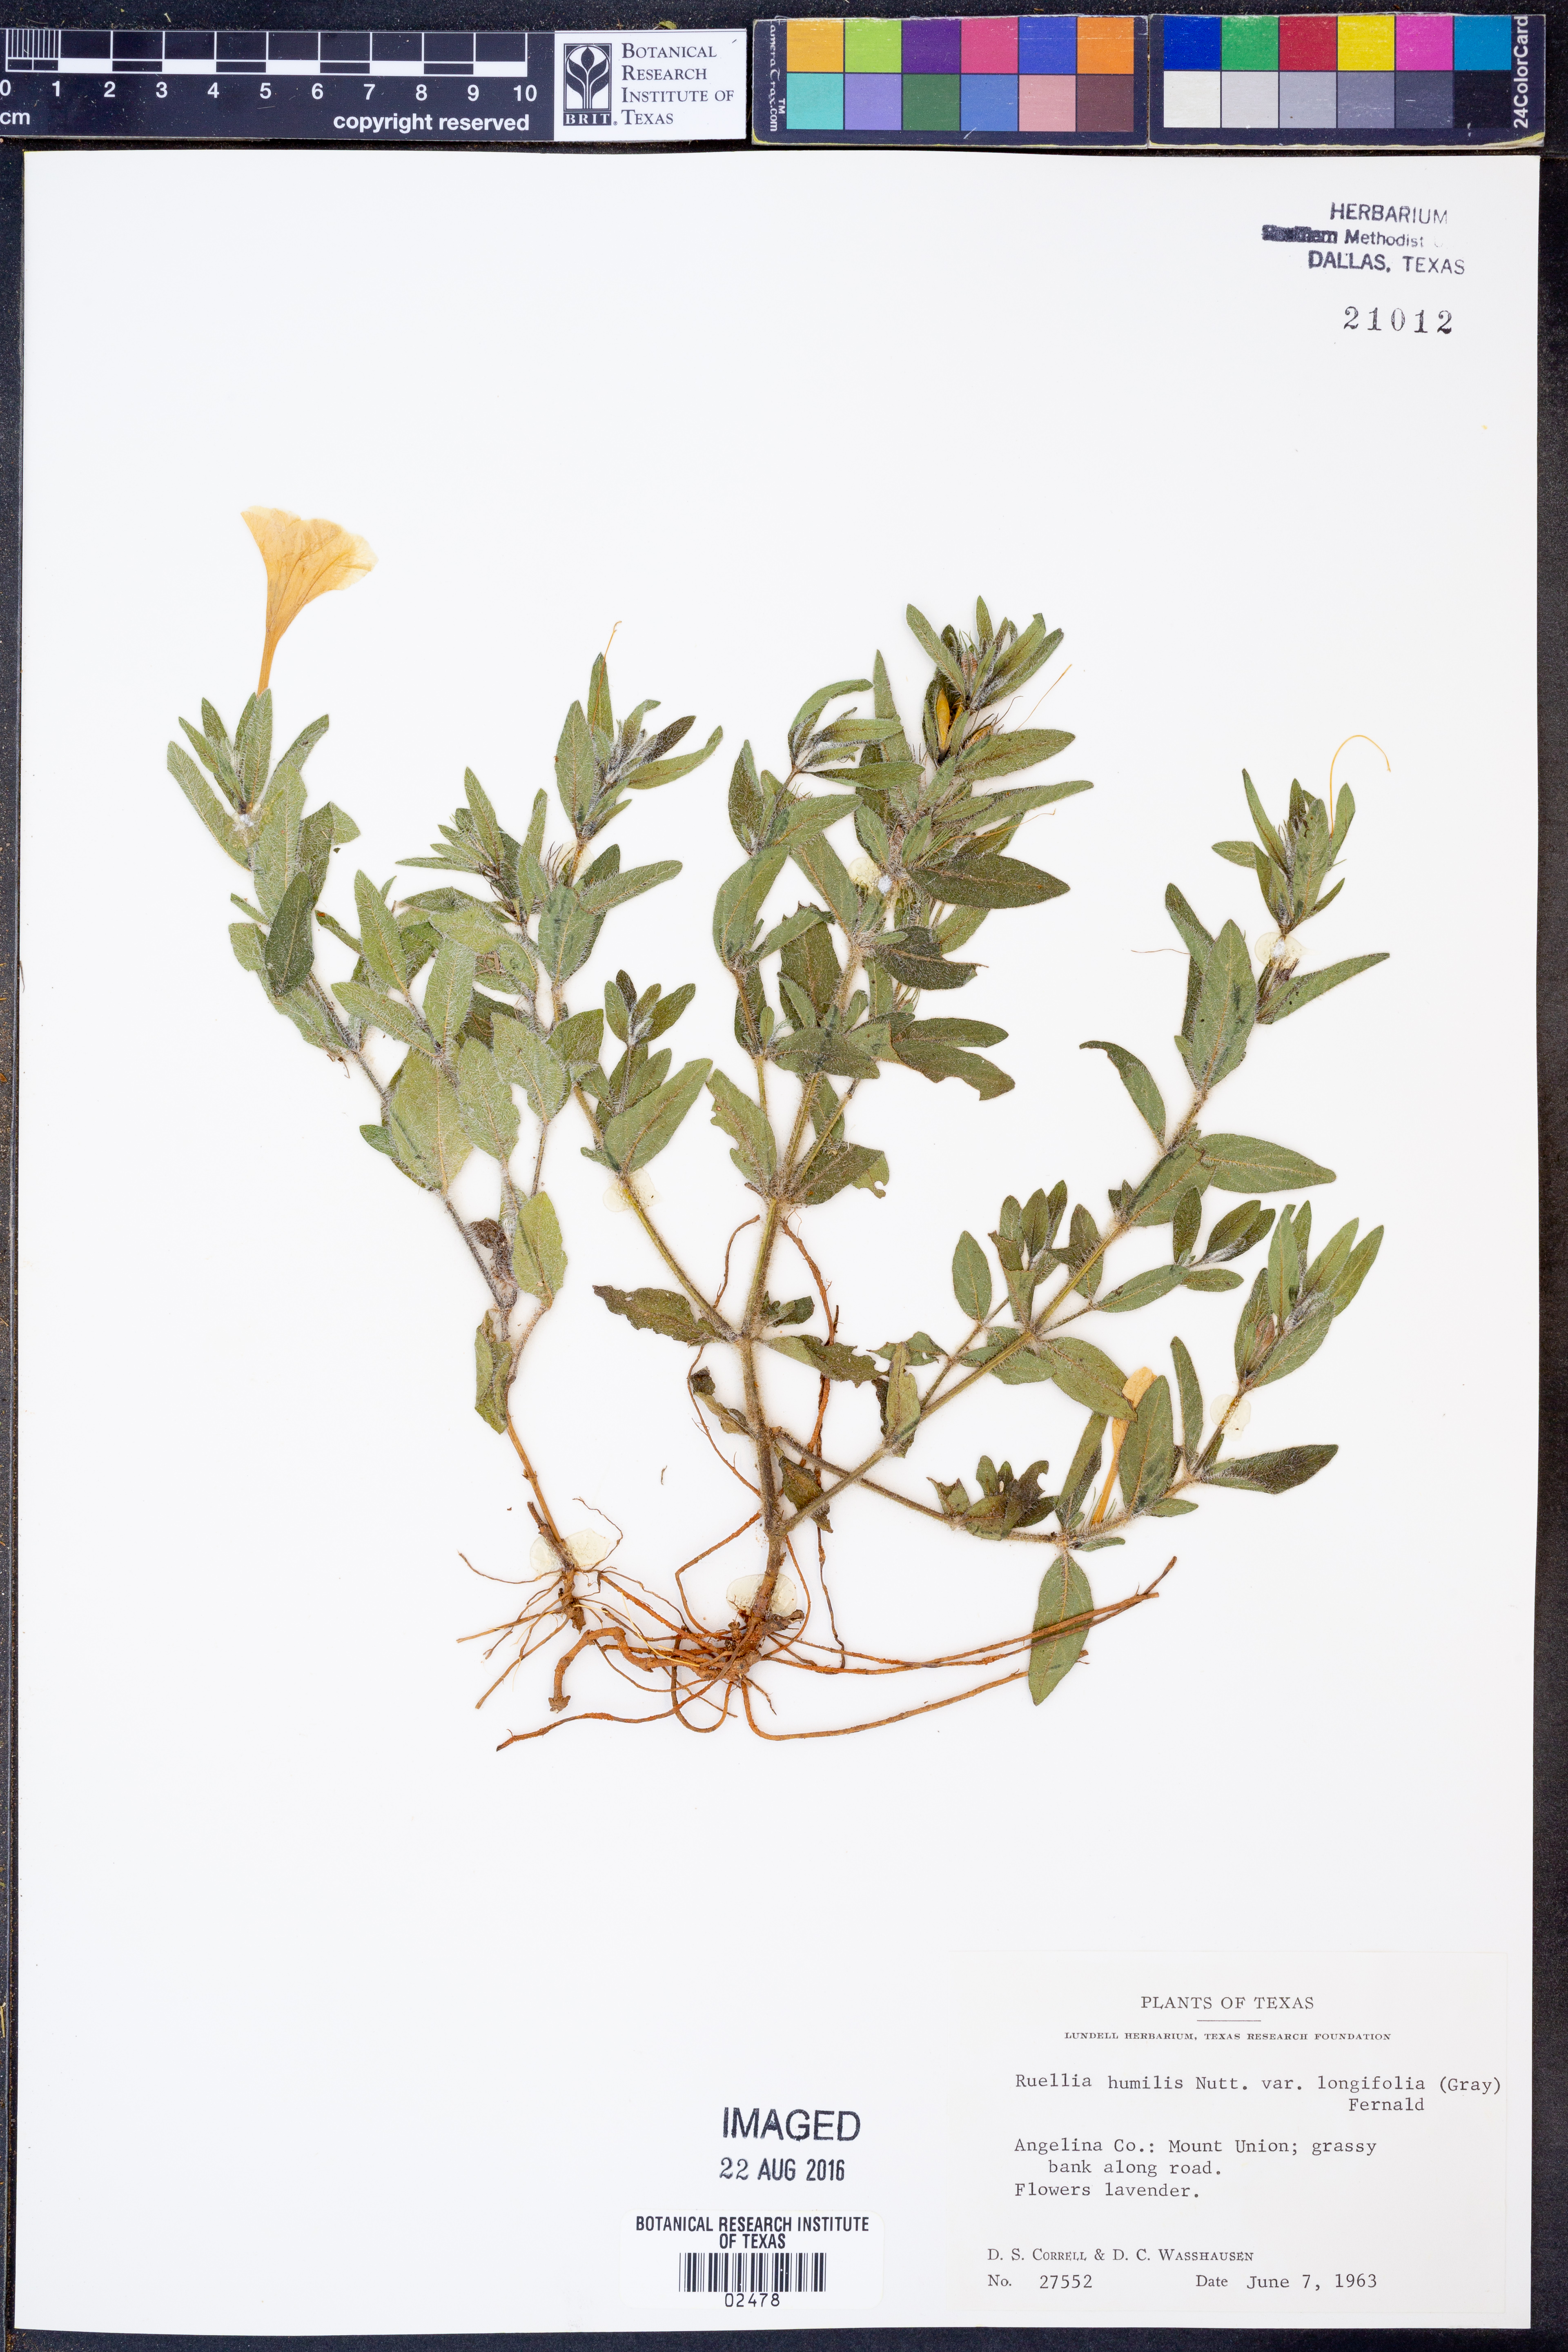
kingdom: Plantae
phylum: Tracheophyta
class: Magnoliopsida
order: Lamiales
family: Acanthaceae
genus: Ruellia
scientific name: Ruellia humilis
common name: Fringe-leaf ruellia
